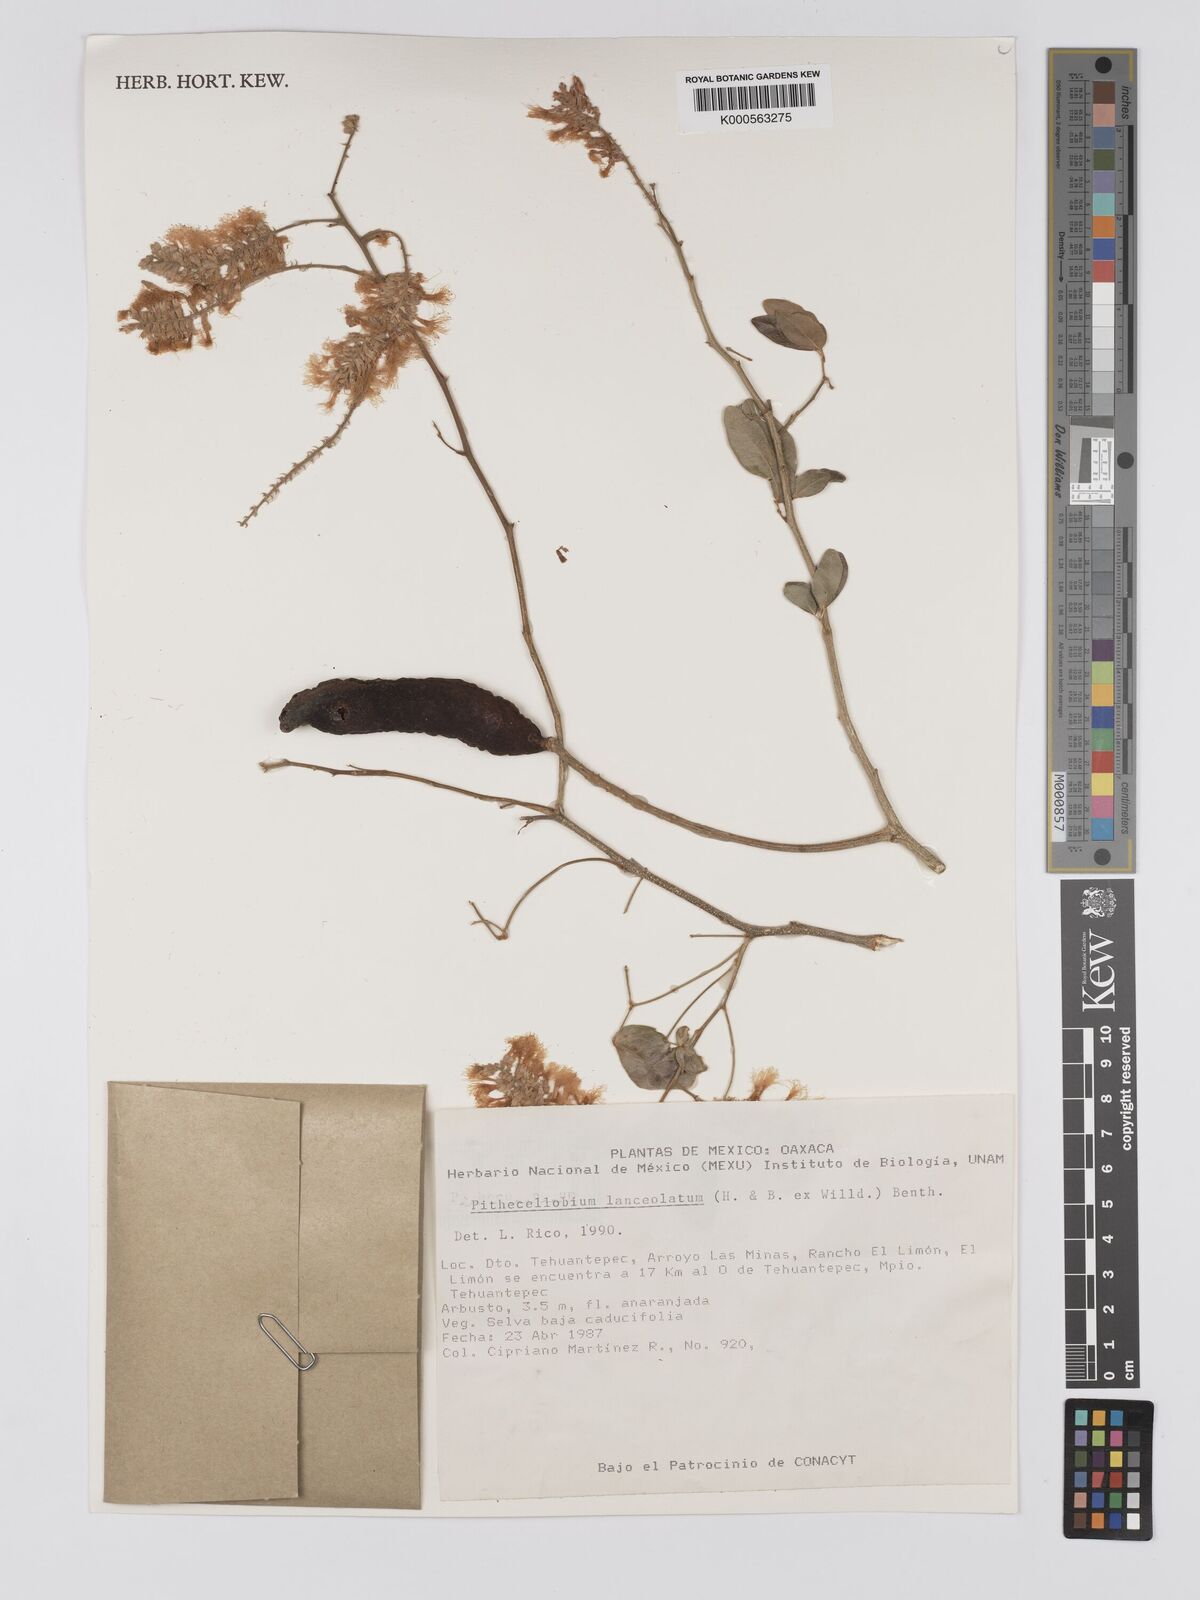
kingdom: Plantae
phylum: Tracheophyta
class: Magnoliopsida
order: Fabales
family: Fabaceae
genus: Pithecellobium
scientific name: Pithecellobium lanceolatum
